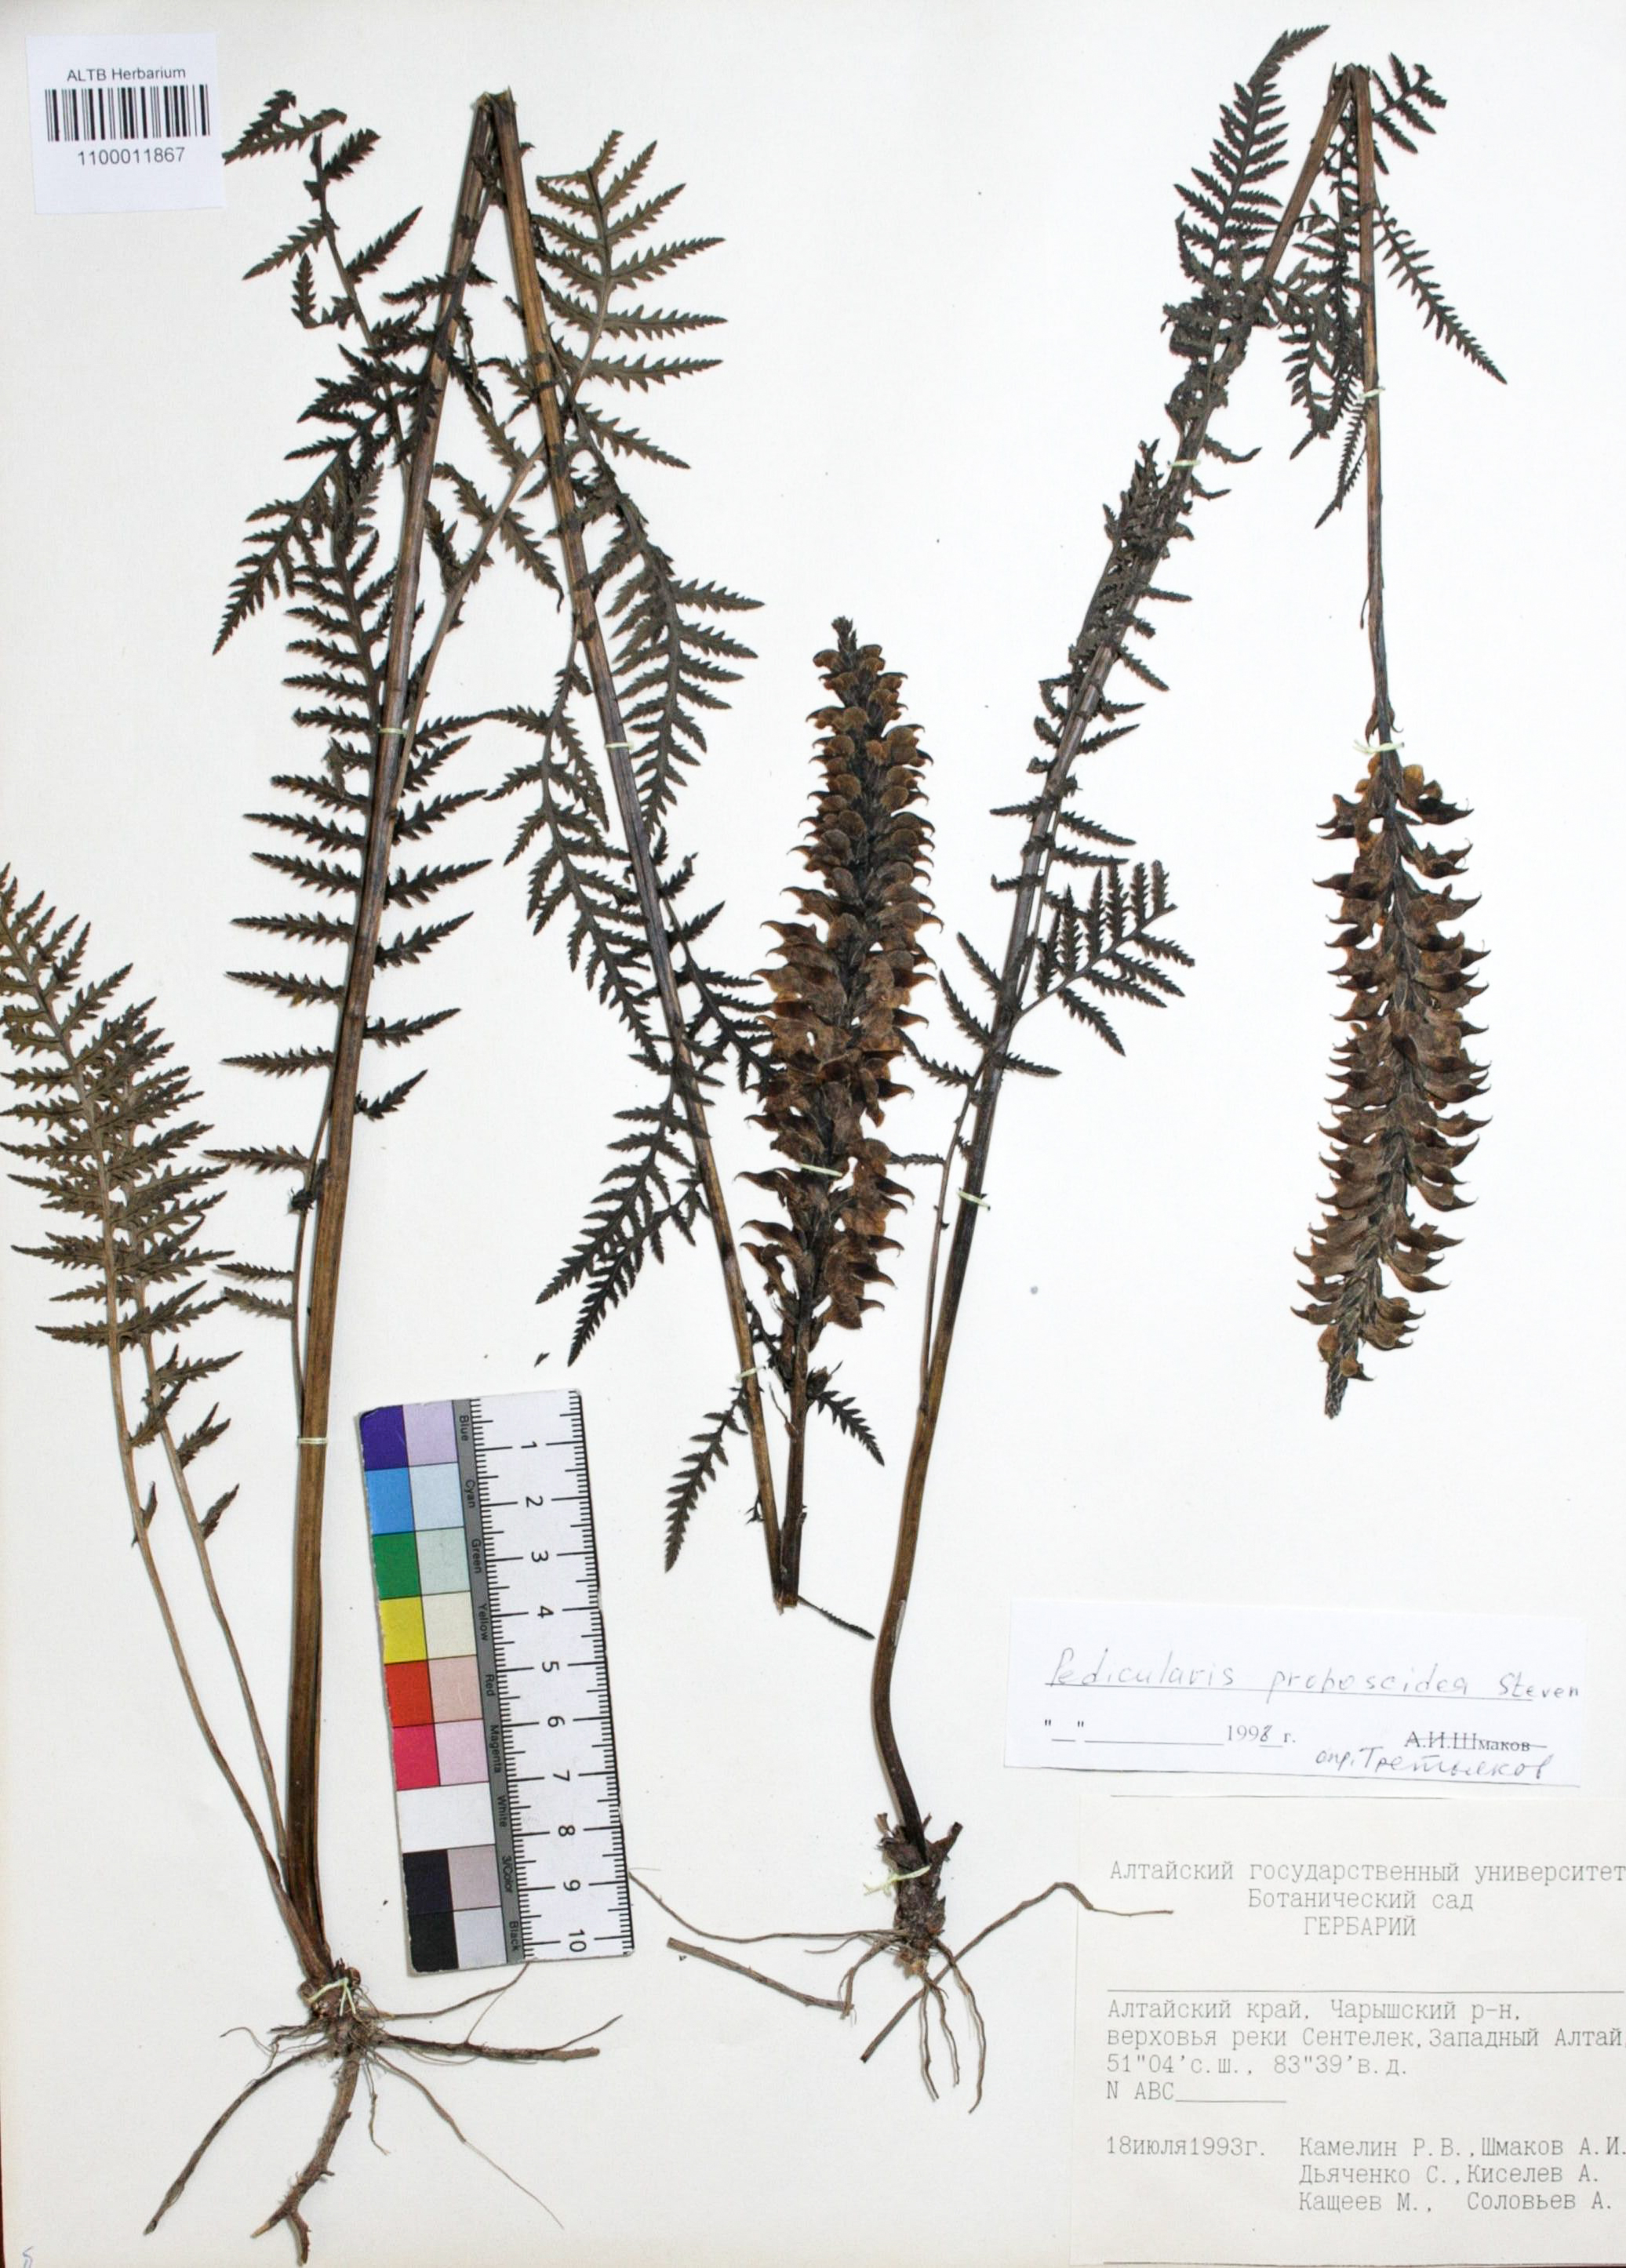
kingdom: Plantae
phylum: Tracheophyta
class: Magnoliopsida
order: Lamiales
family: Orobanchaceae
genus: Pedicularis
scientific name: Pedicularis proboscidea
